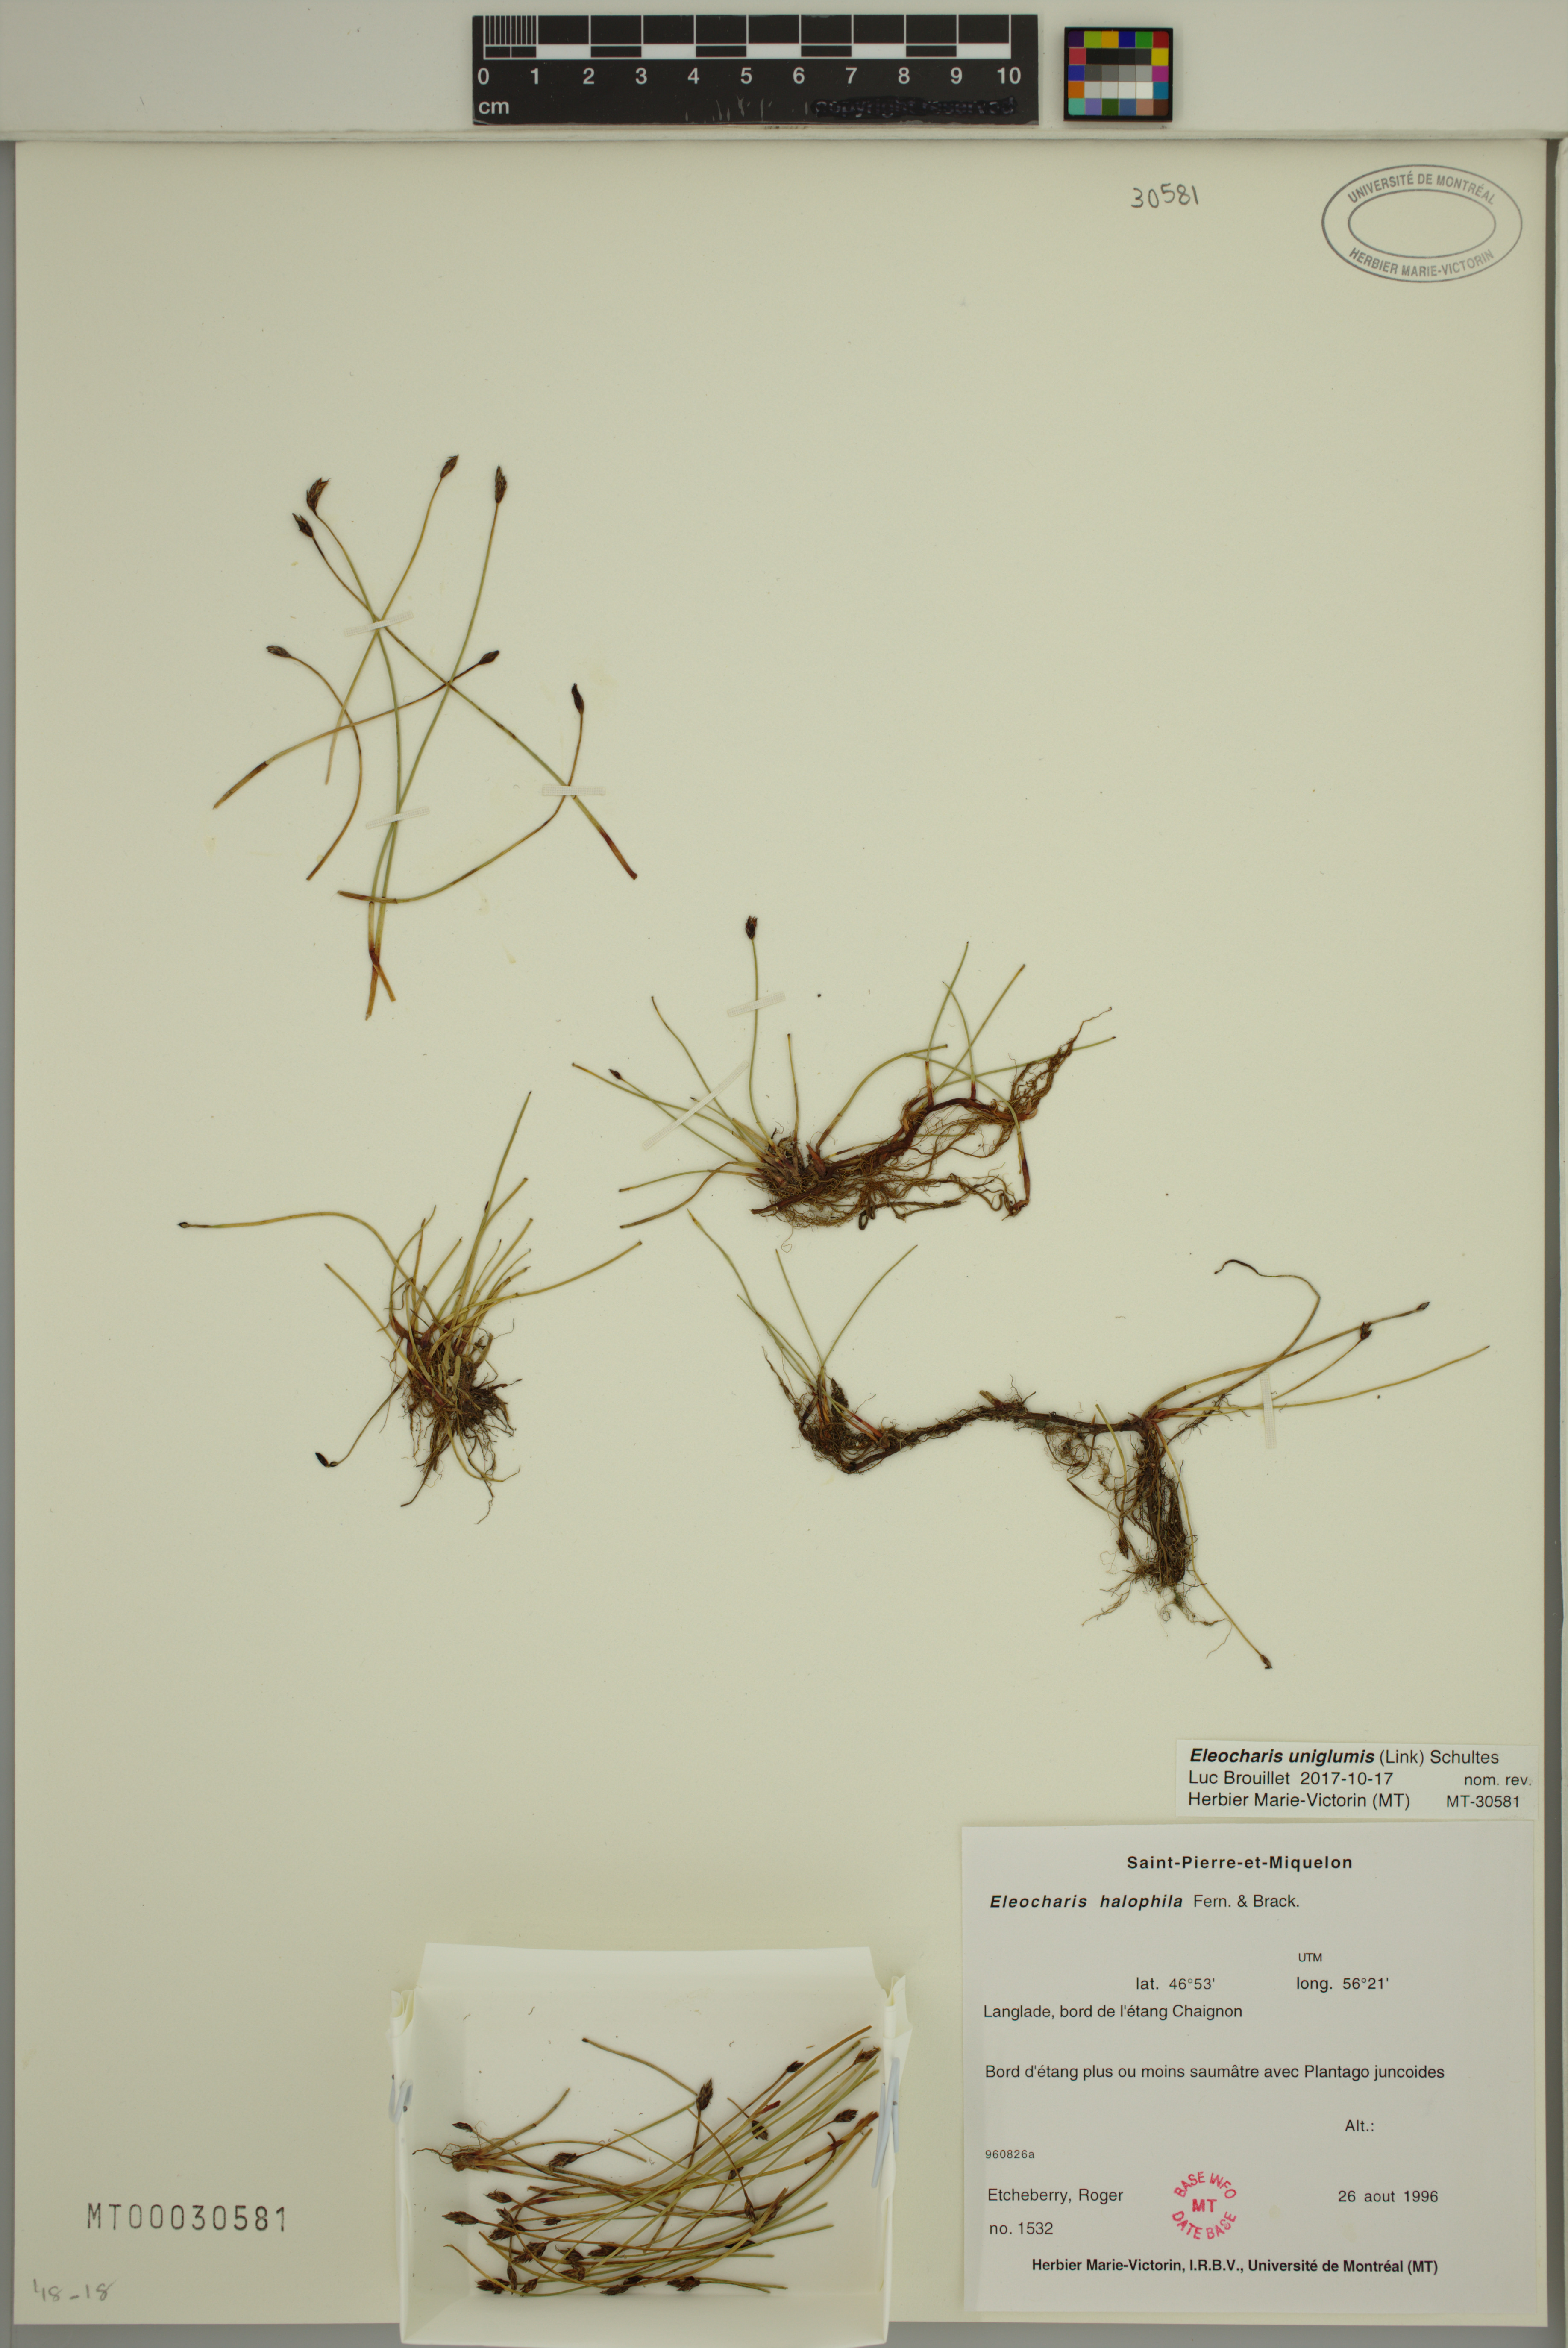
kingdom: Plantae
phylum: Tracheophyta
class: Liliopsida
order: Poales
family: Cyperaceae
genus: Eleocharis
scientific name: Eleocharis uniglumis
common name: Slender spike-rush
